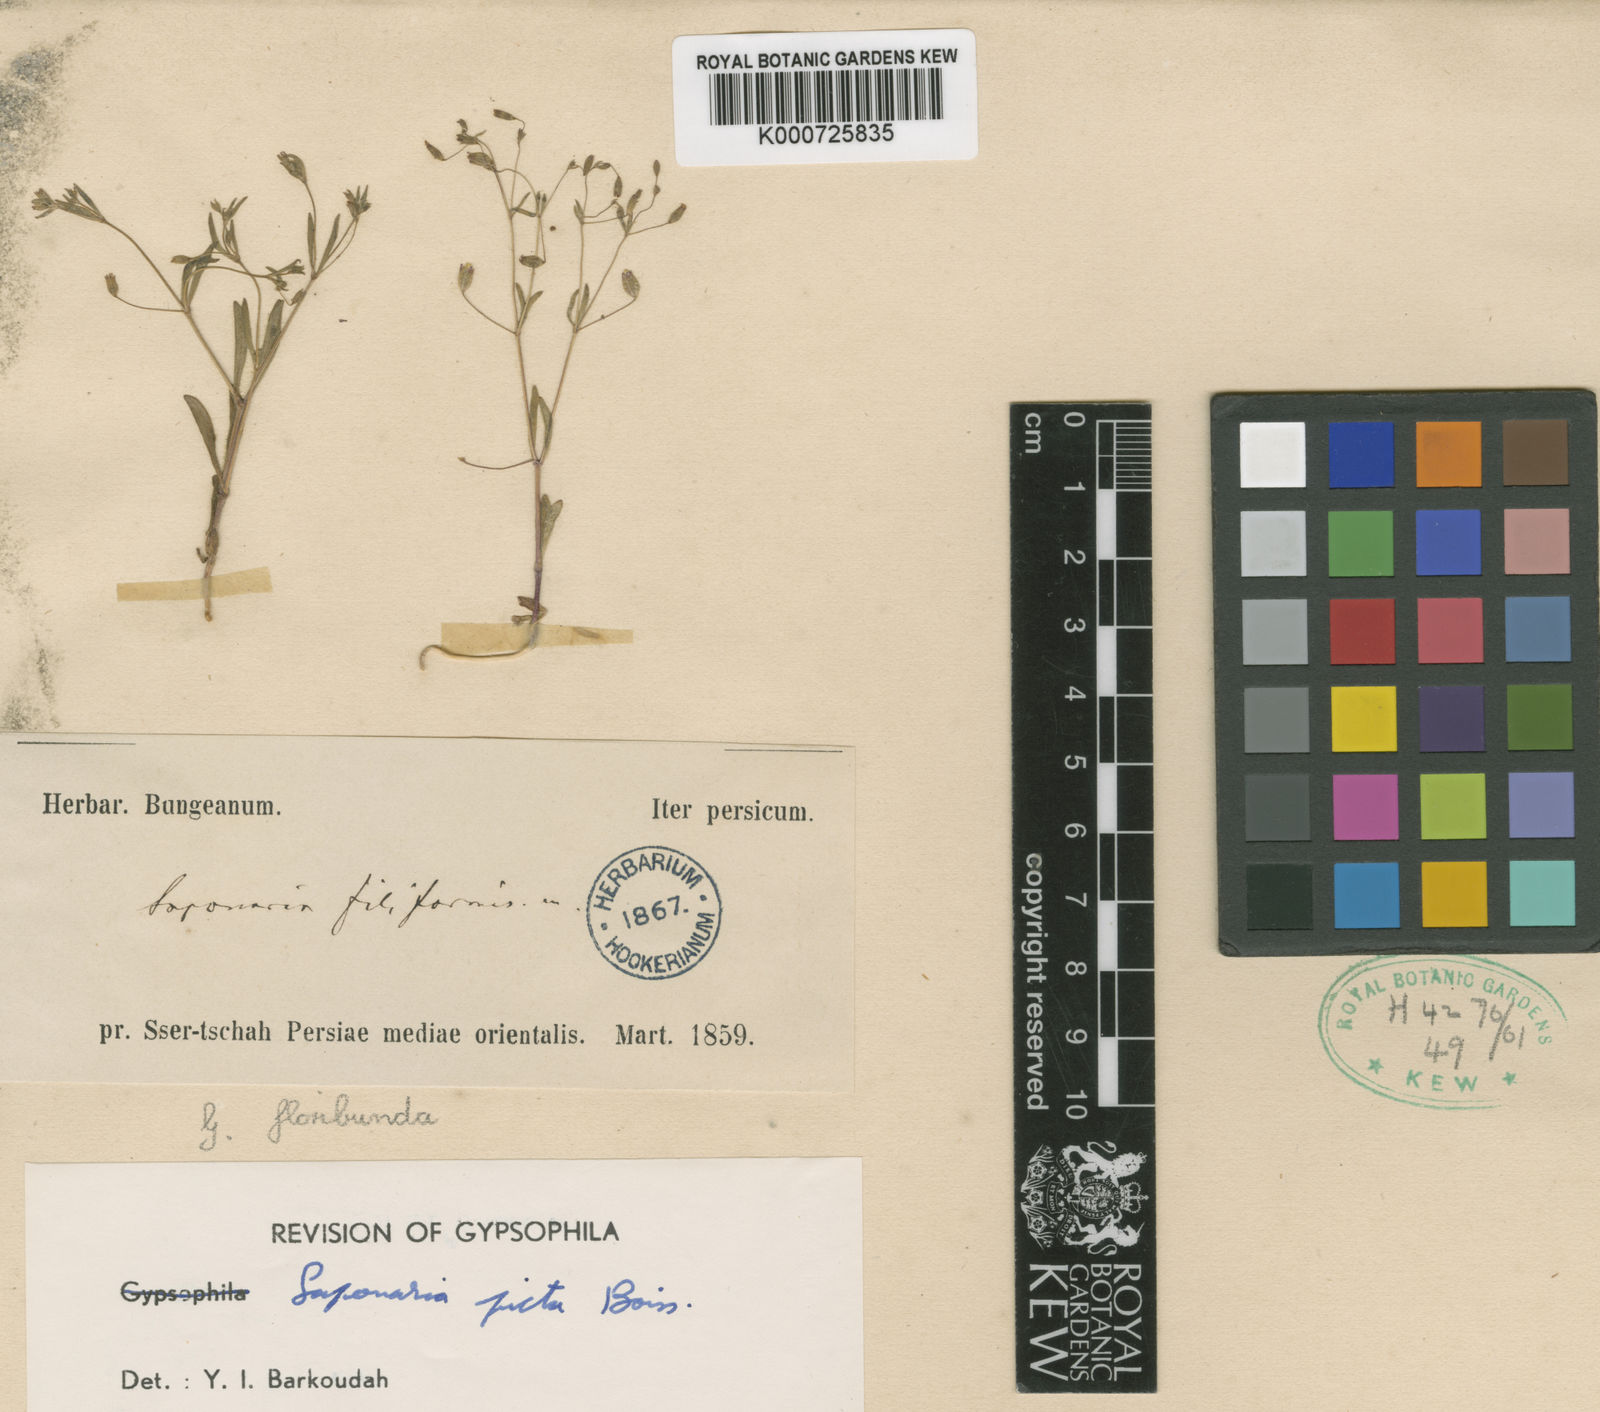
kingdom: Plantae
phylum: Tracheophyta
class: Magnoliopsida
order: Caryophyllales
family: Caryophyllaceae
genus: Saponaria
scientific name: Saponaria picta
